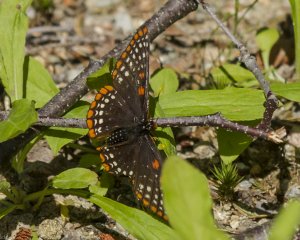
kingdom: Animalia
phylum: Arthropoda
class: Insecta
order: Lepidoptera
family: Nymphalidae
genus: Euphydryas
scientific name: Euphydryas phaeton
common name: Baltimore Checkerspot
